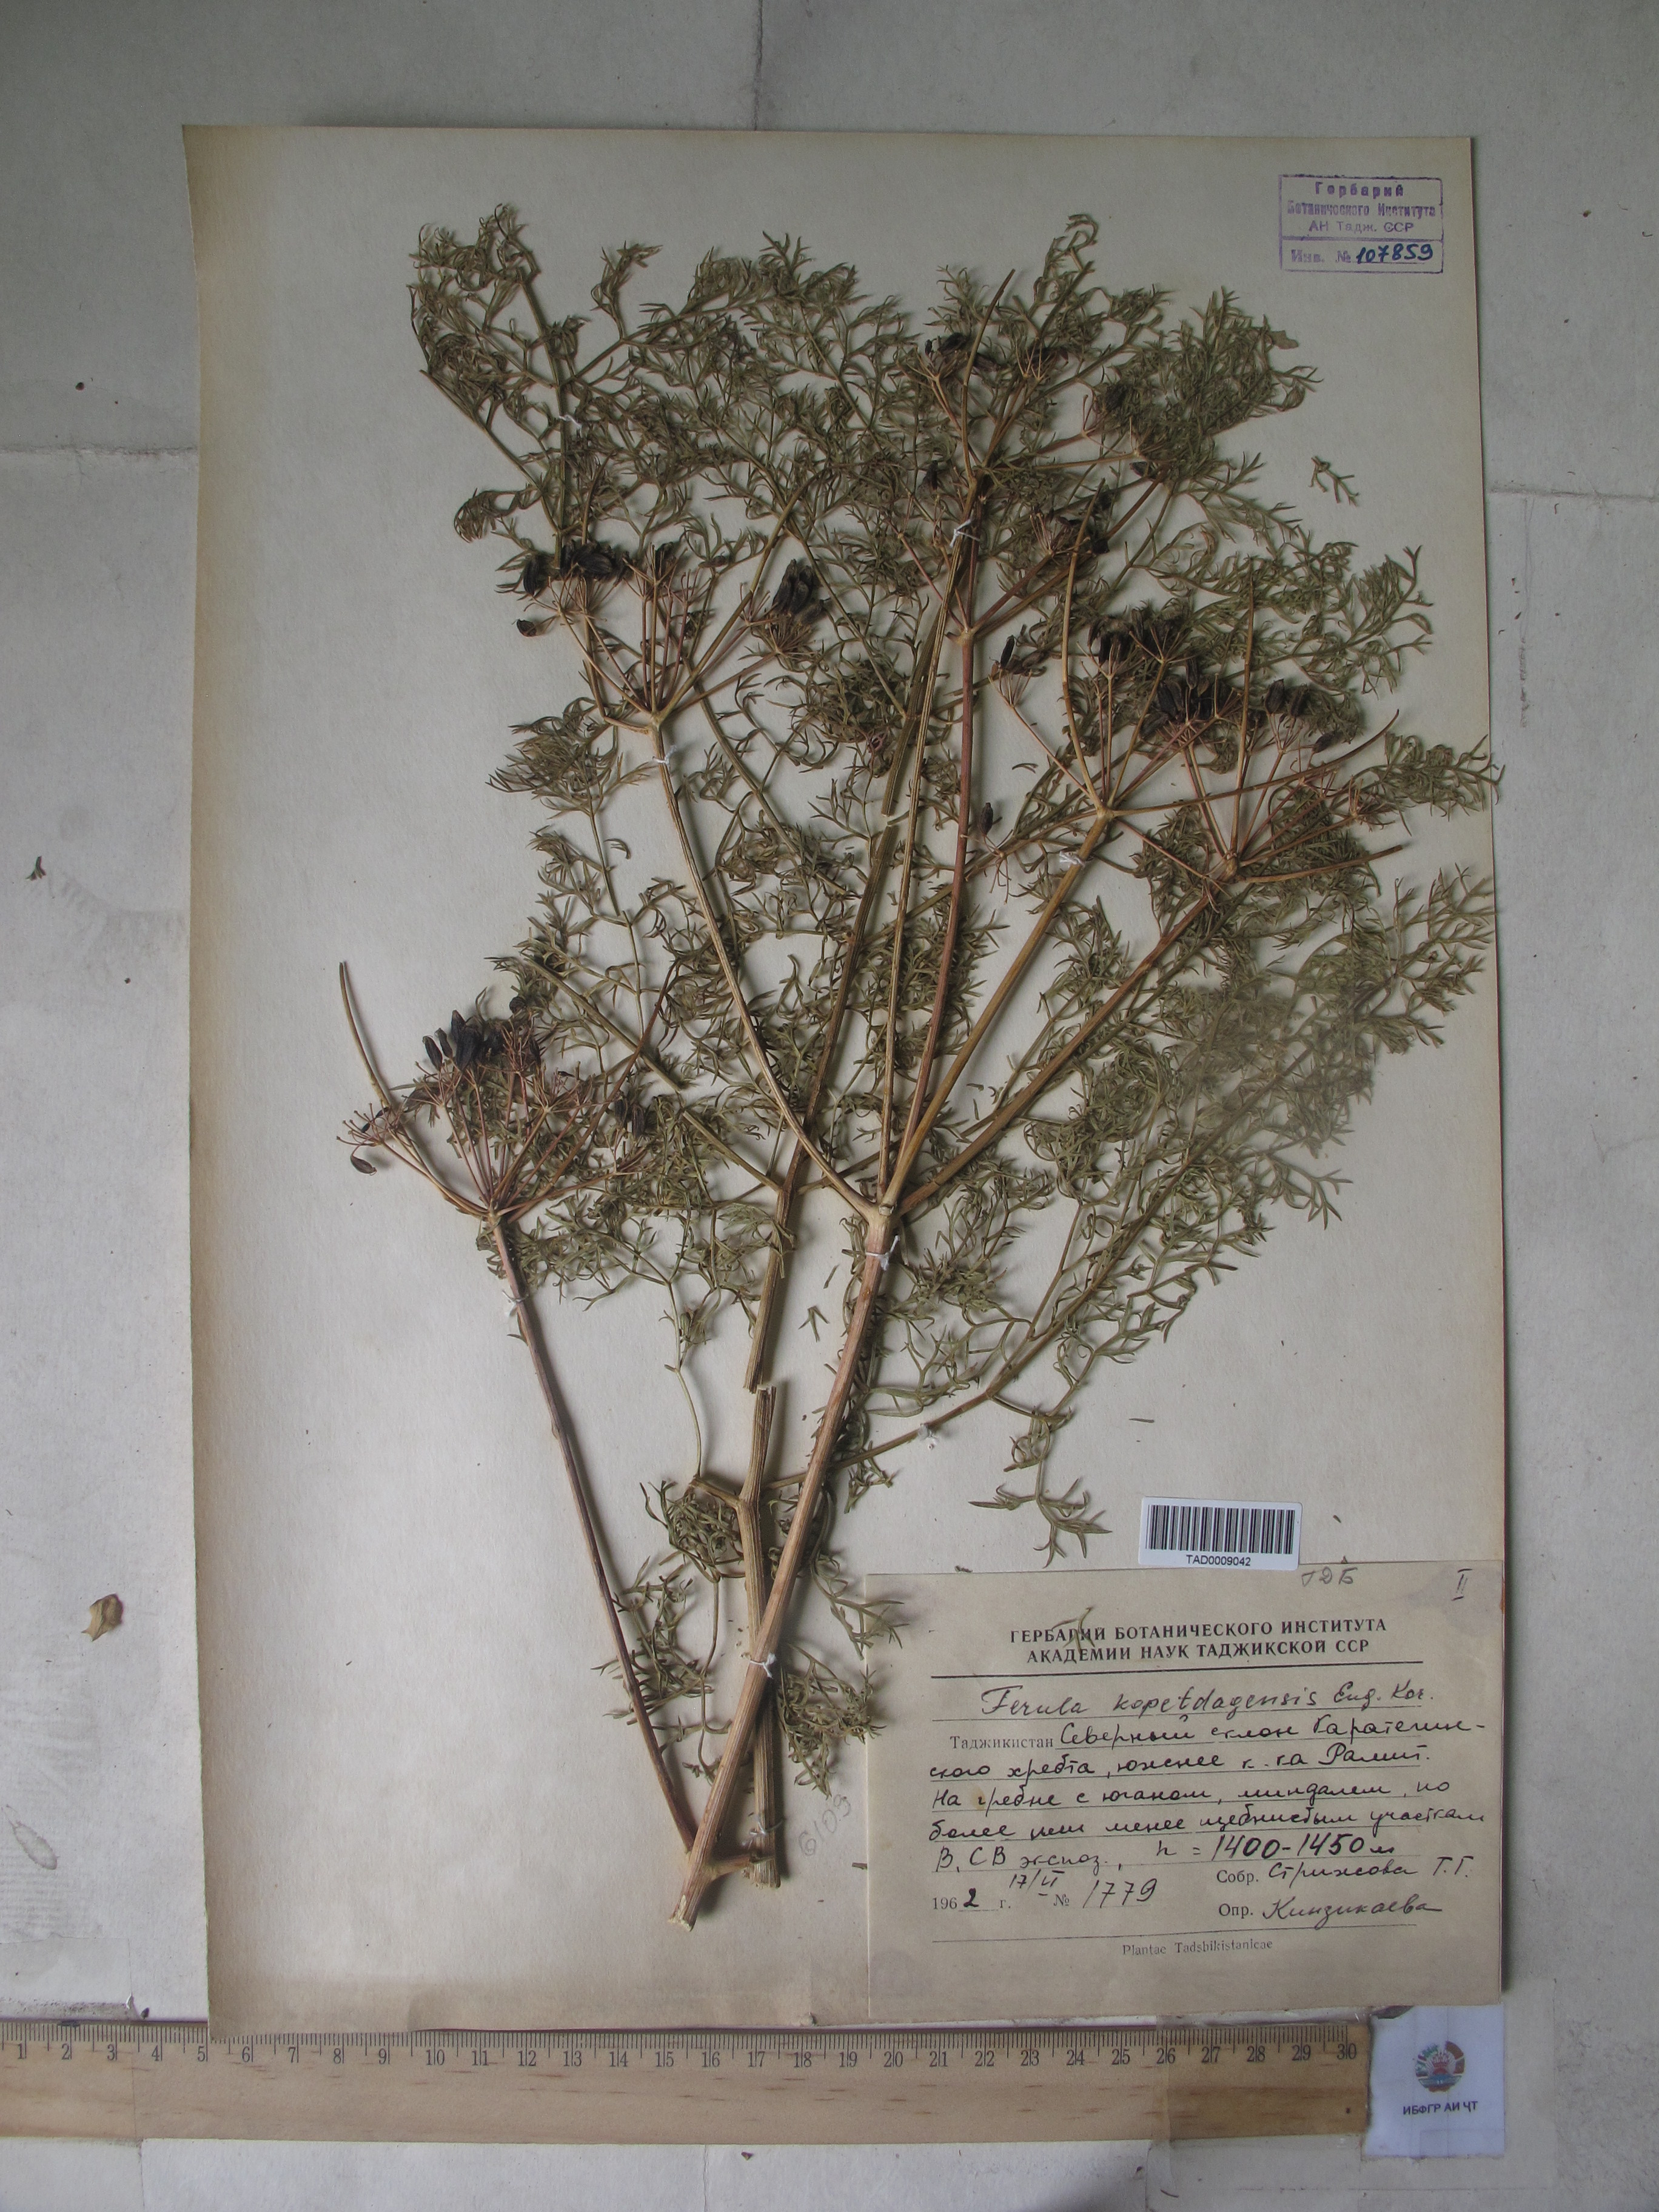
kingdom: Plantae
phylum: Tracheophyta
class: Magnoliopsida
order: Apiales
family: Apiaceae
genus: Ferula
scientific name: Ferula ovina
